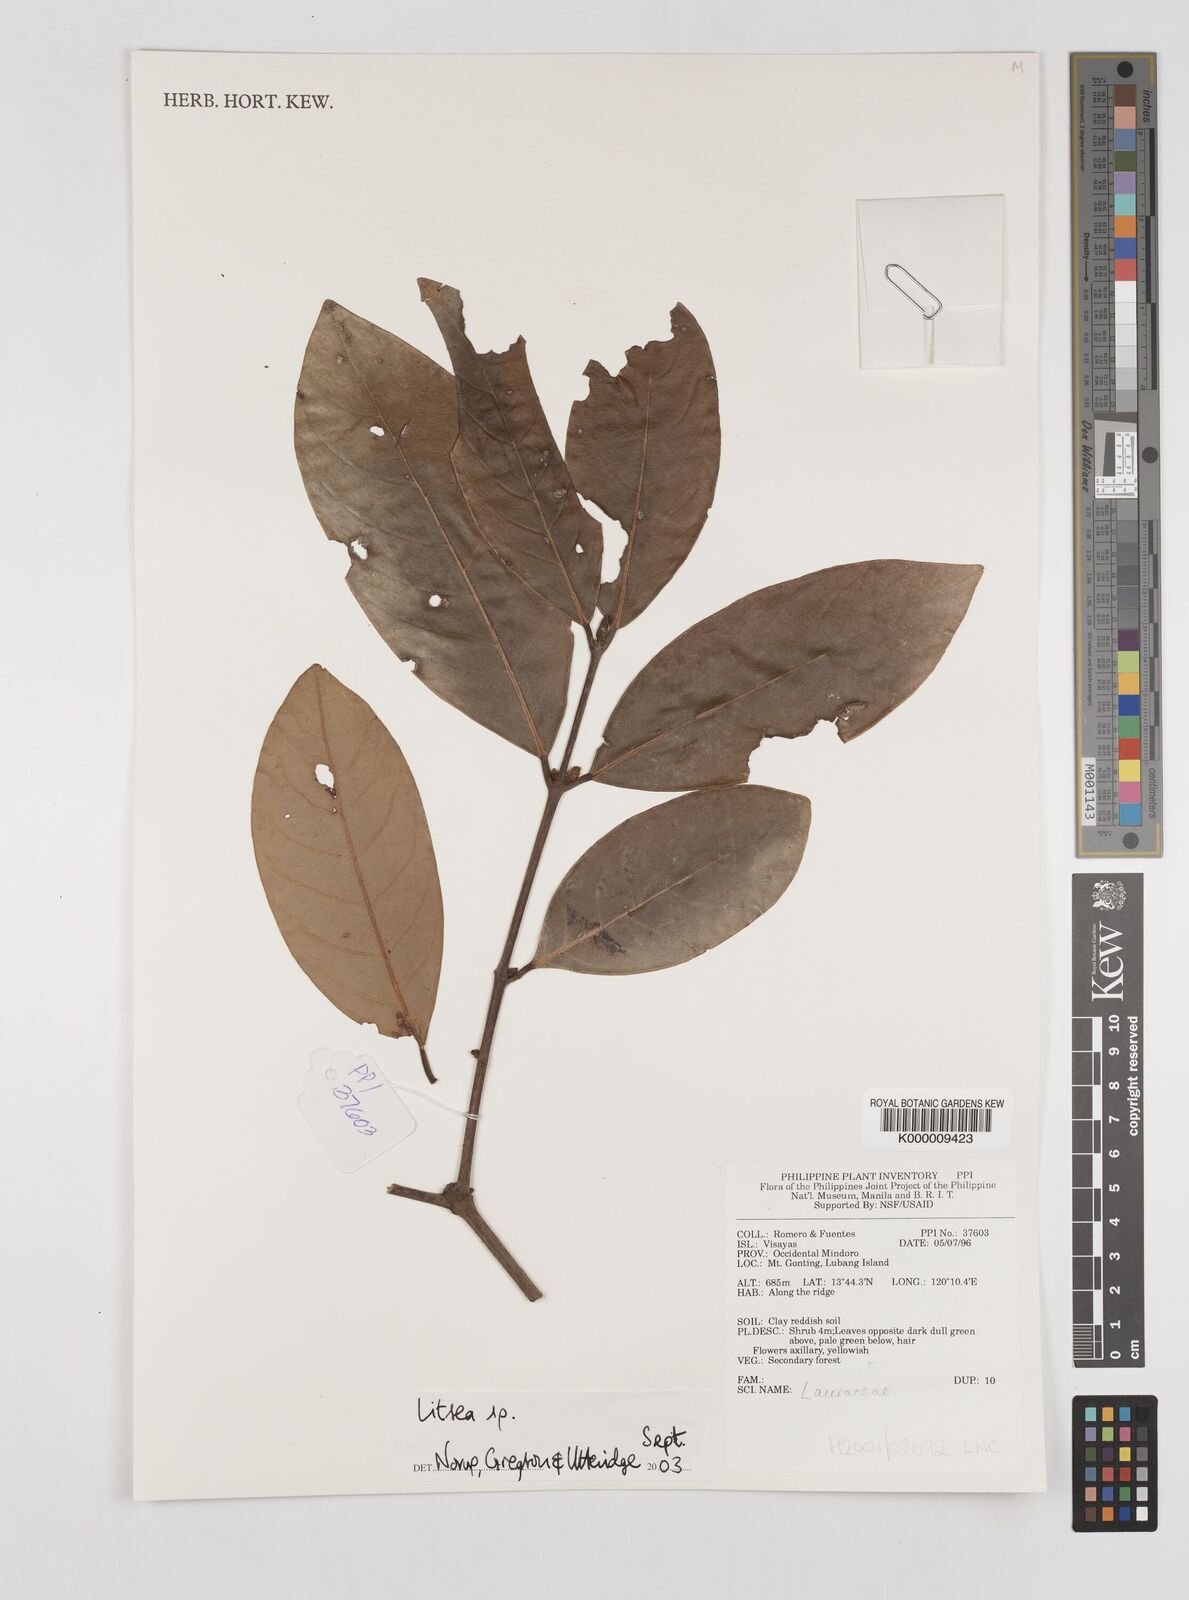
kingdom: Plantae
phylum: Tracheophyta
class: Magnoliopsida
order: Laurales
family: Lauraceae
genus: Litsea
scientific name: Litsea
